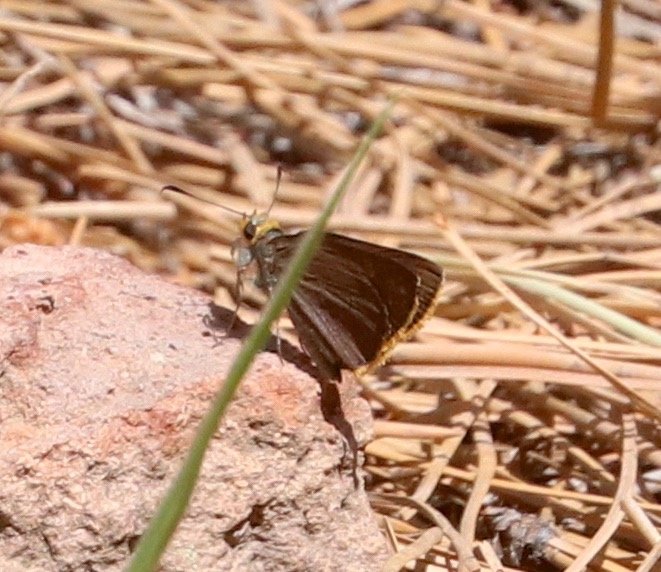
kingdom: Animalia
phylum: Arthropoda
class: Insecta
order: Lepidoptera
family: Hesperiidae
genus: Mastor
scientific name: Mastor fimbriata
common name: Orange-edged Roadside-Skipper
